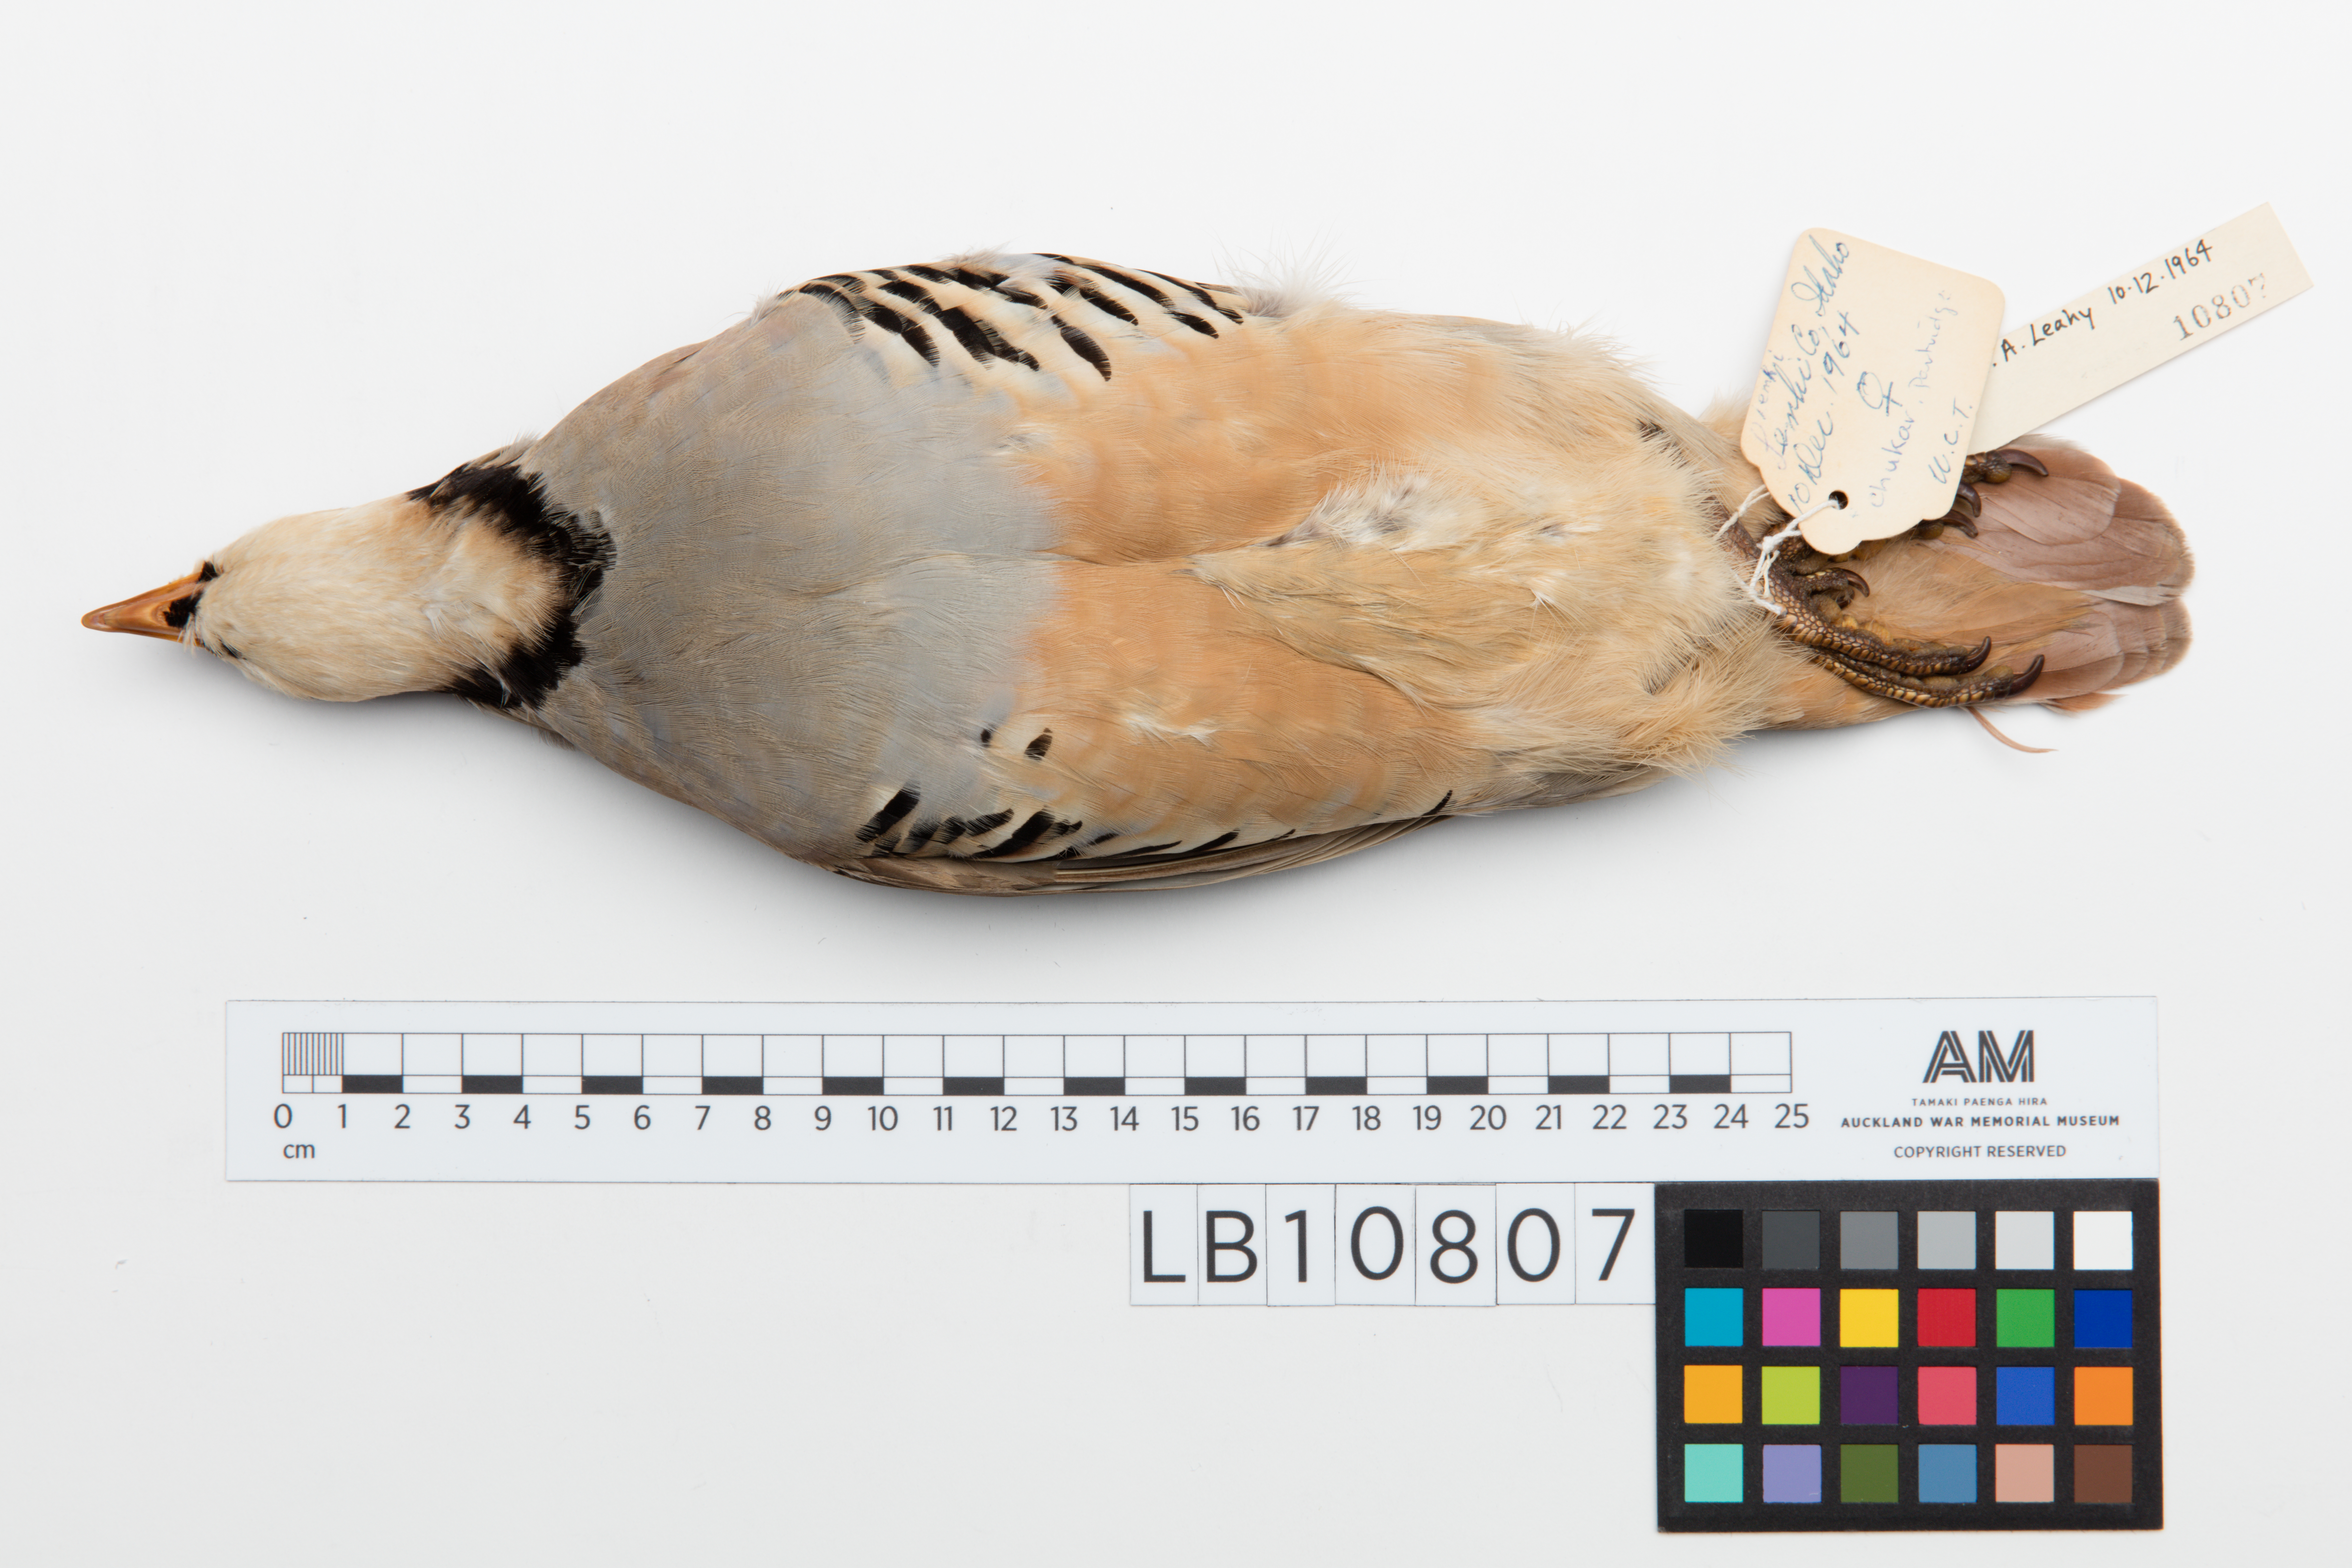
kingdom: Animalia
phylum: Chordata
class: Aves
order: Galliformes
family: Phasianidae
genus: Alectoris
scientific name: Alectoris chukar
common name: Chukar
